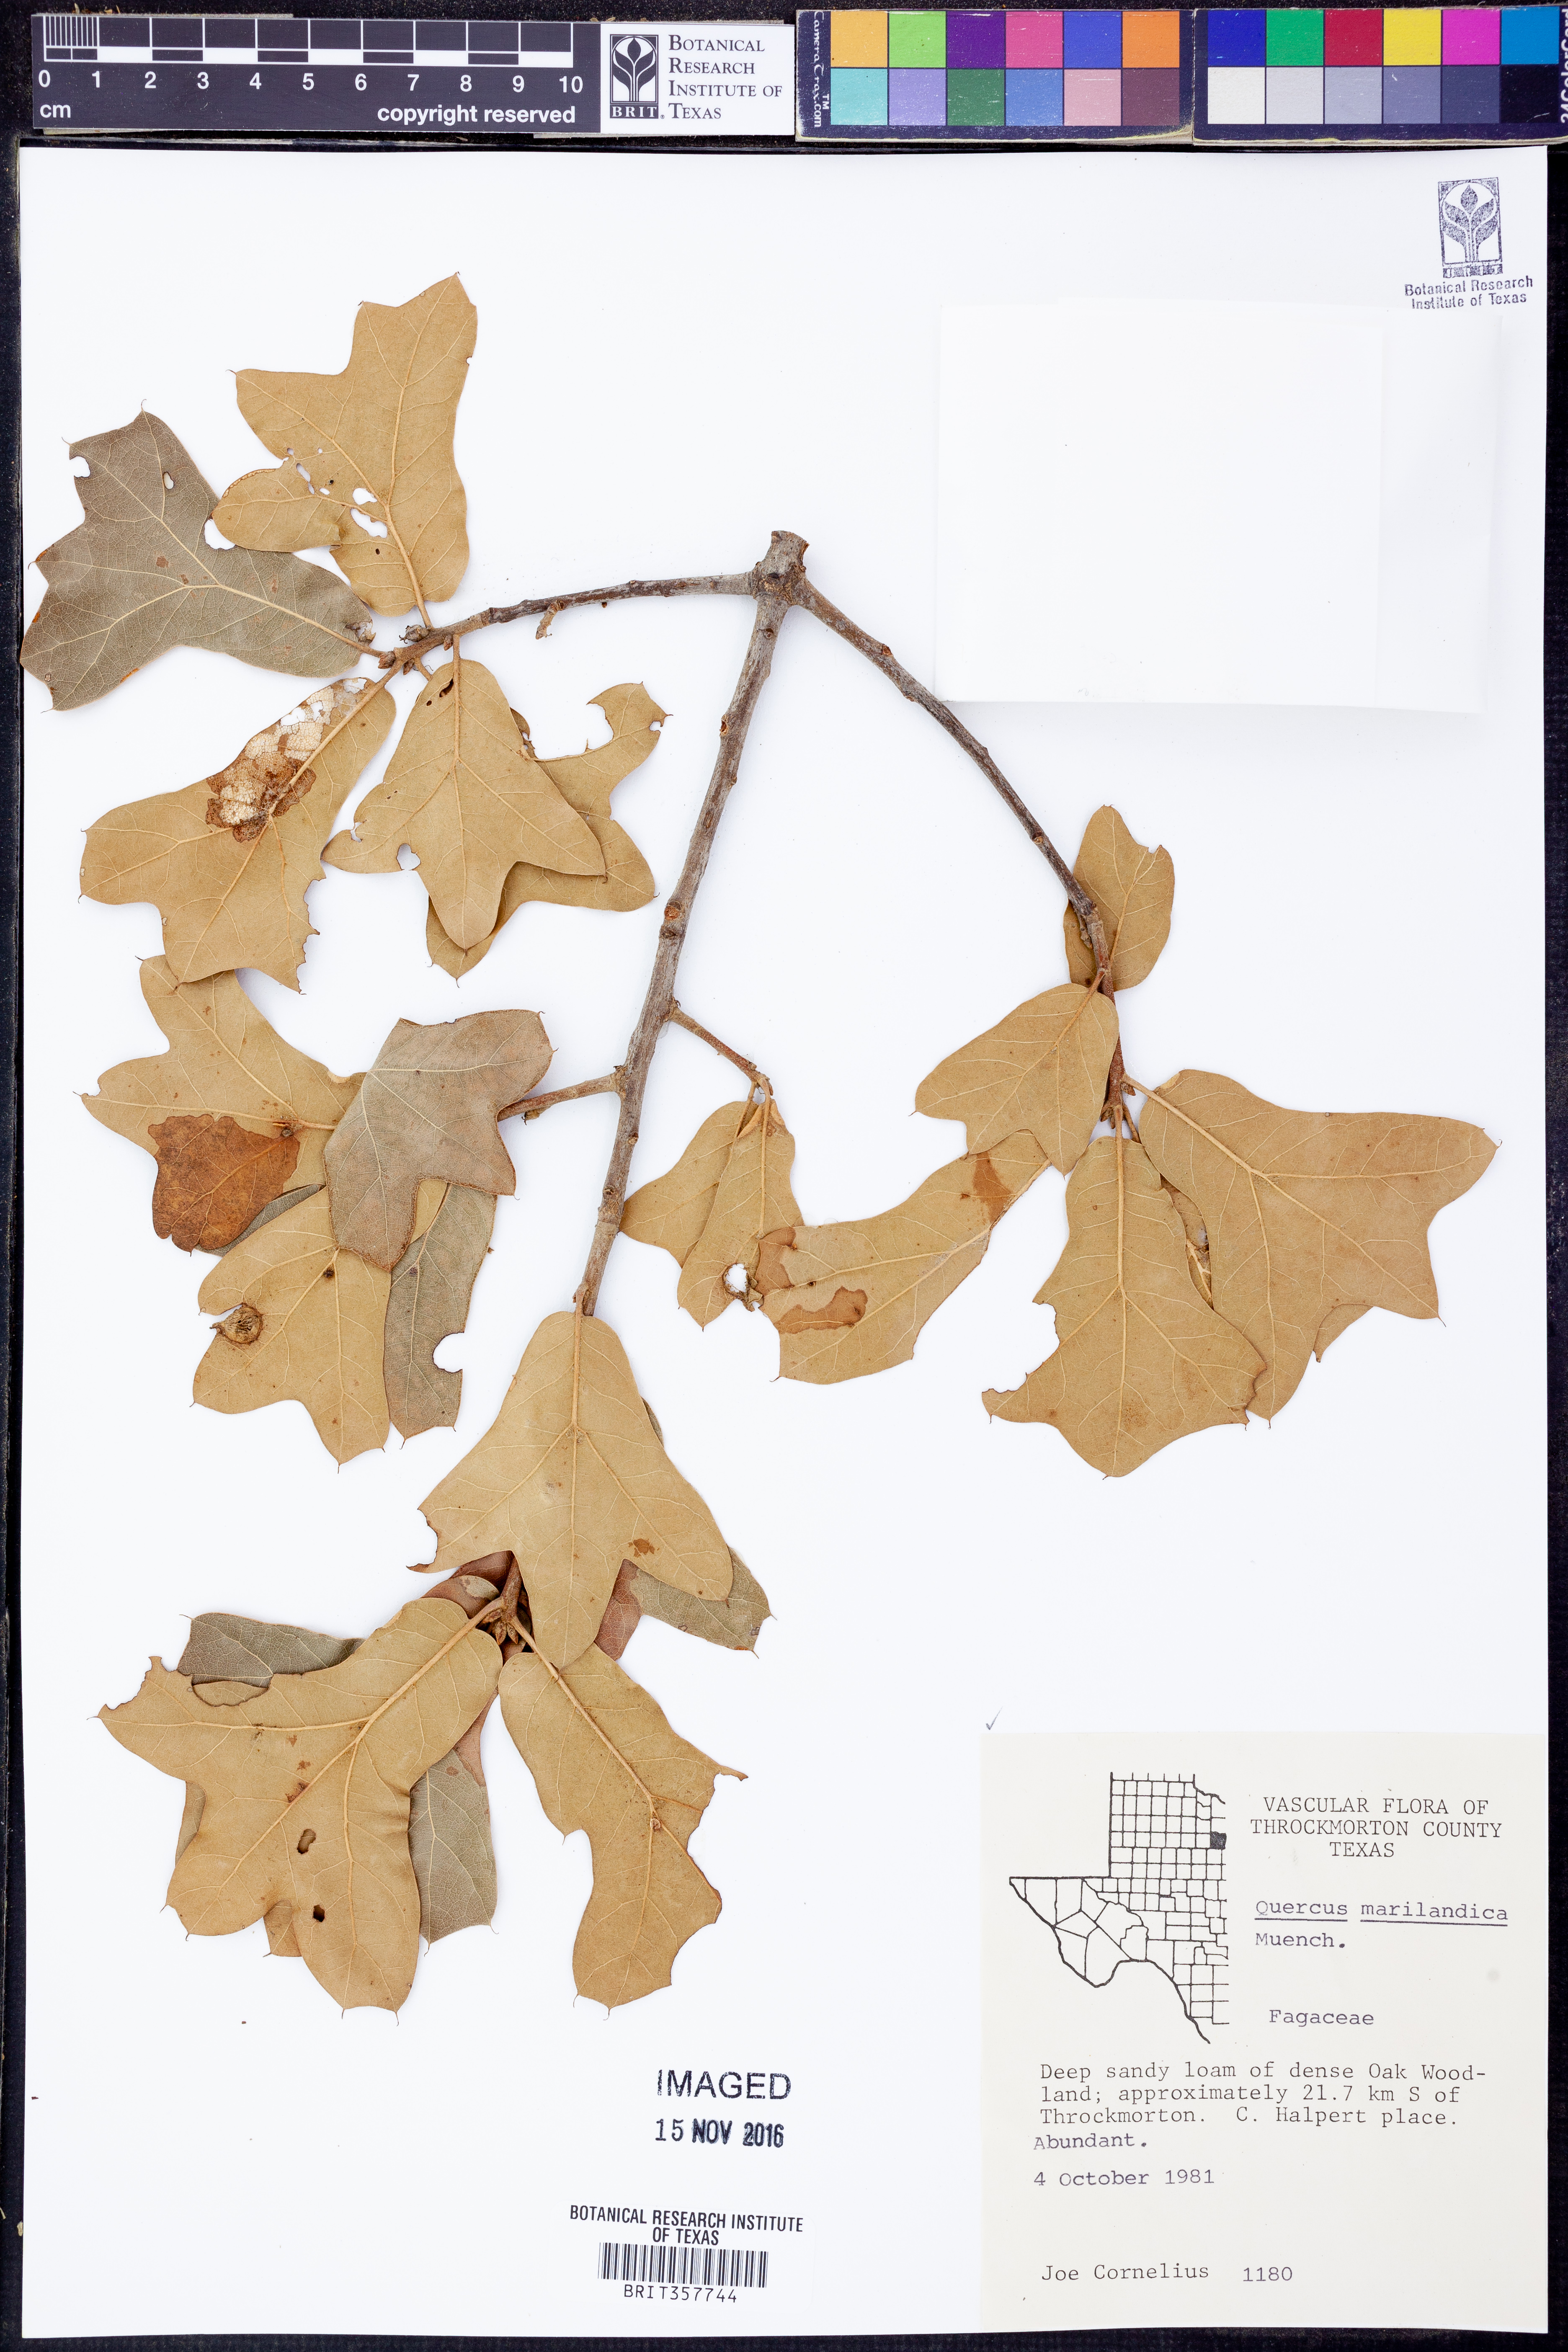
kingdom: Plantae
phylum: Tracheophyta
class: Magnoliopsida
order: Fagales
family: Fagaceae
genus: Quercus
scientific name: Quercus marilandica
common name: Blackjack oak
